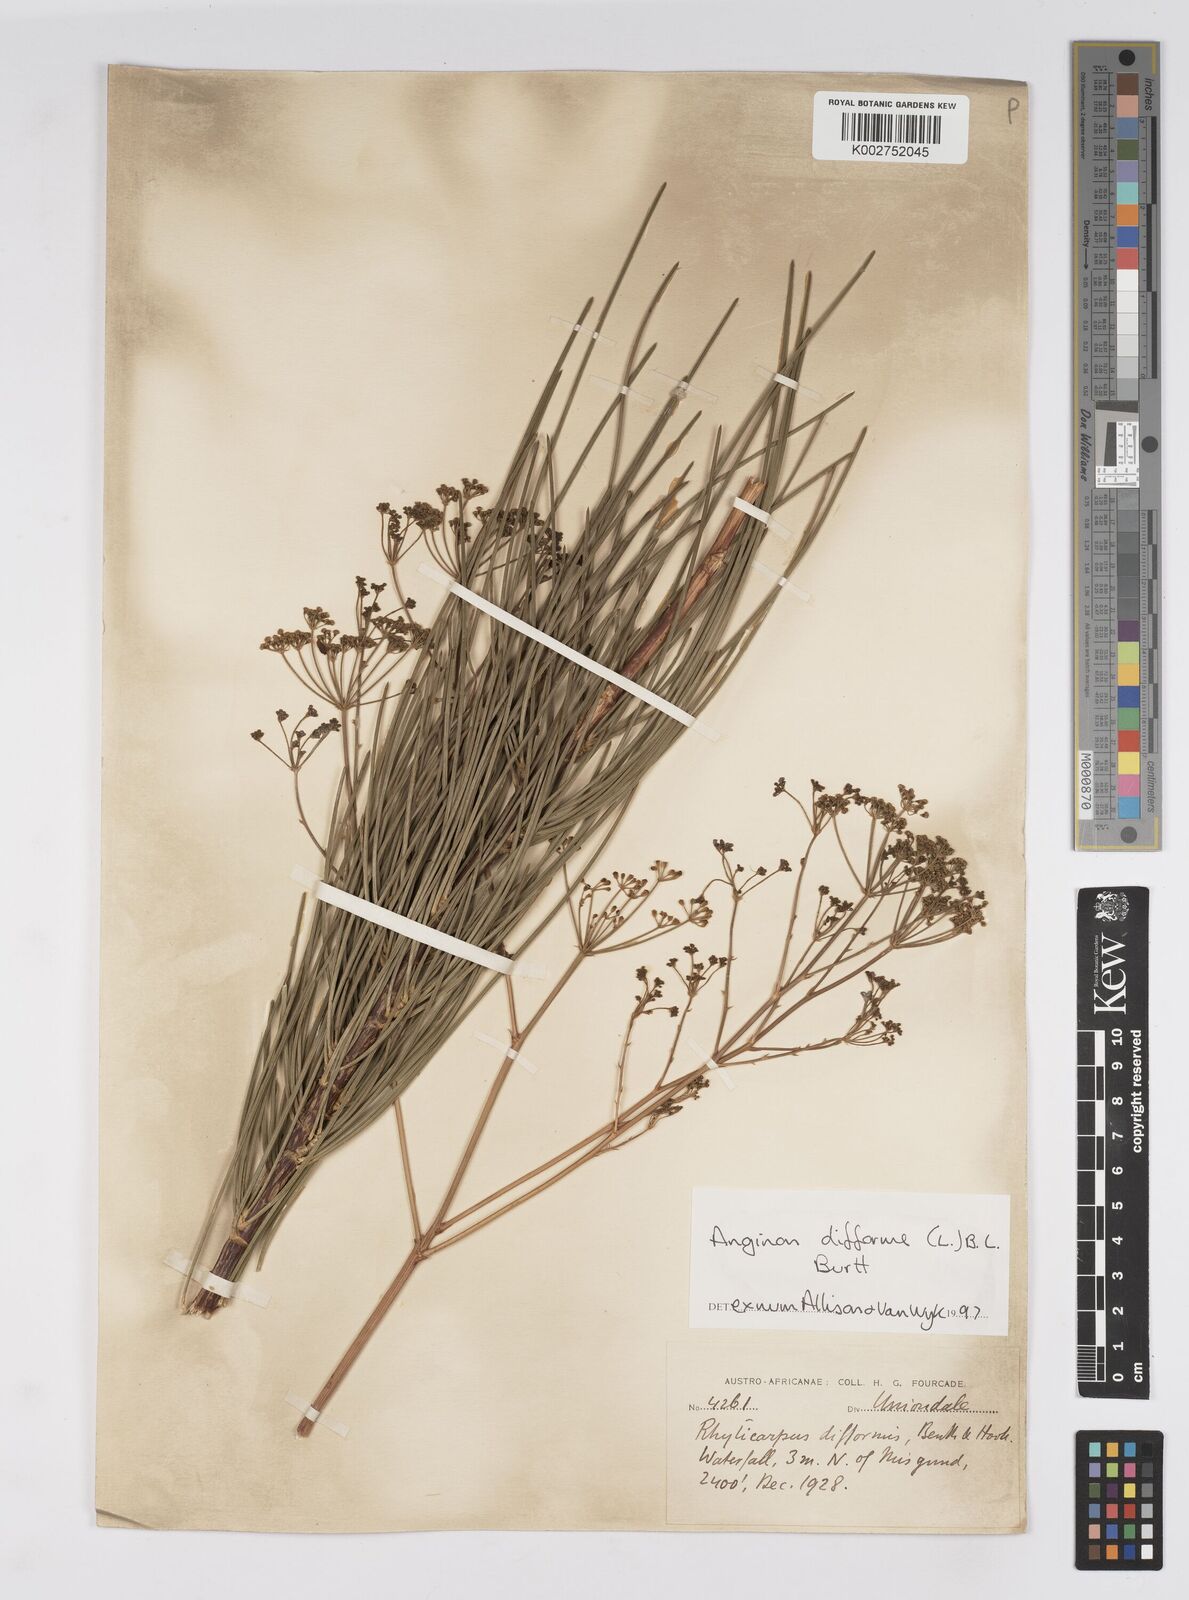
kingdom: Plantae
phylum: Tracheophyta
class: Magnoliopsida
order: Apiales
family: Apiaceae
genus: Anginon
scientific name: Anginon difforme
